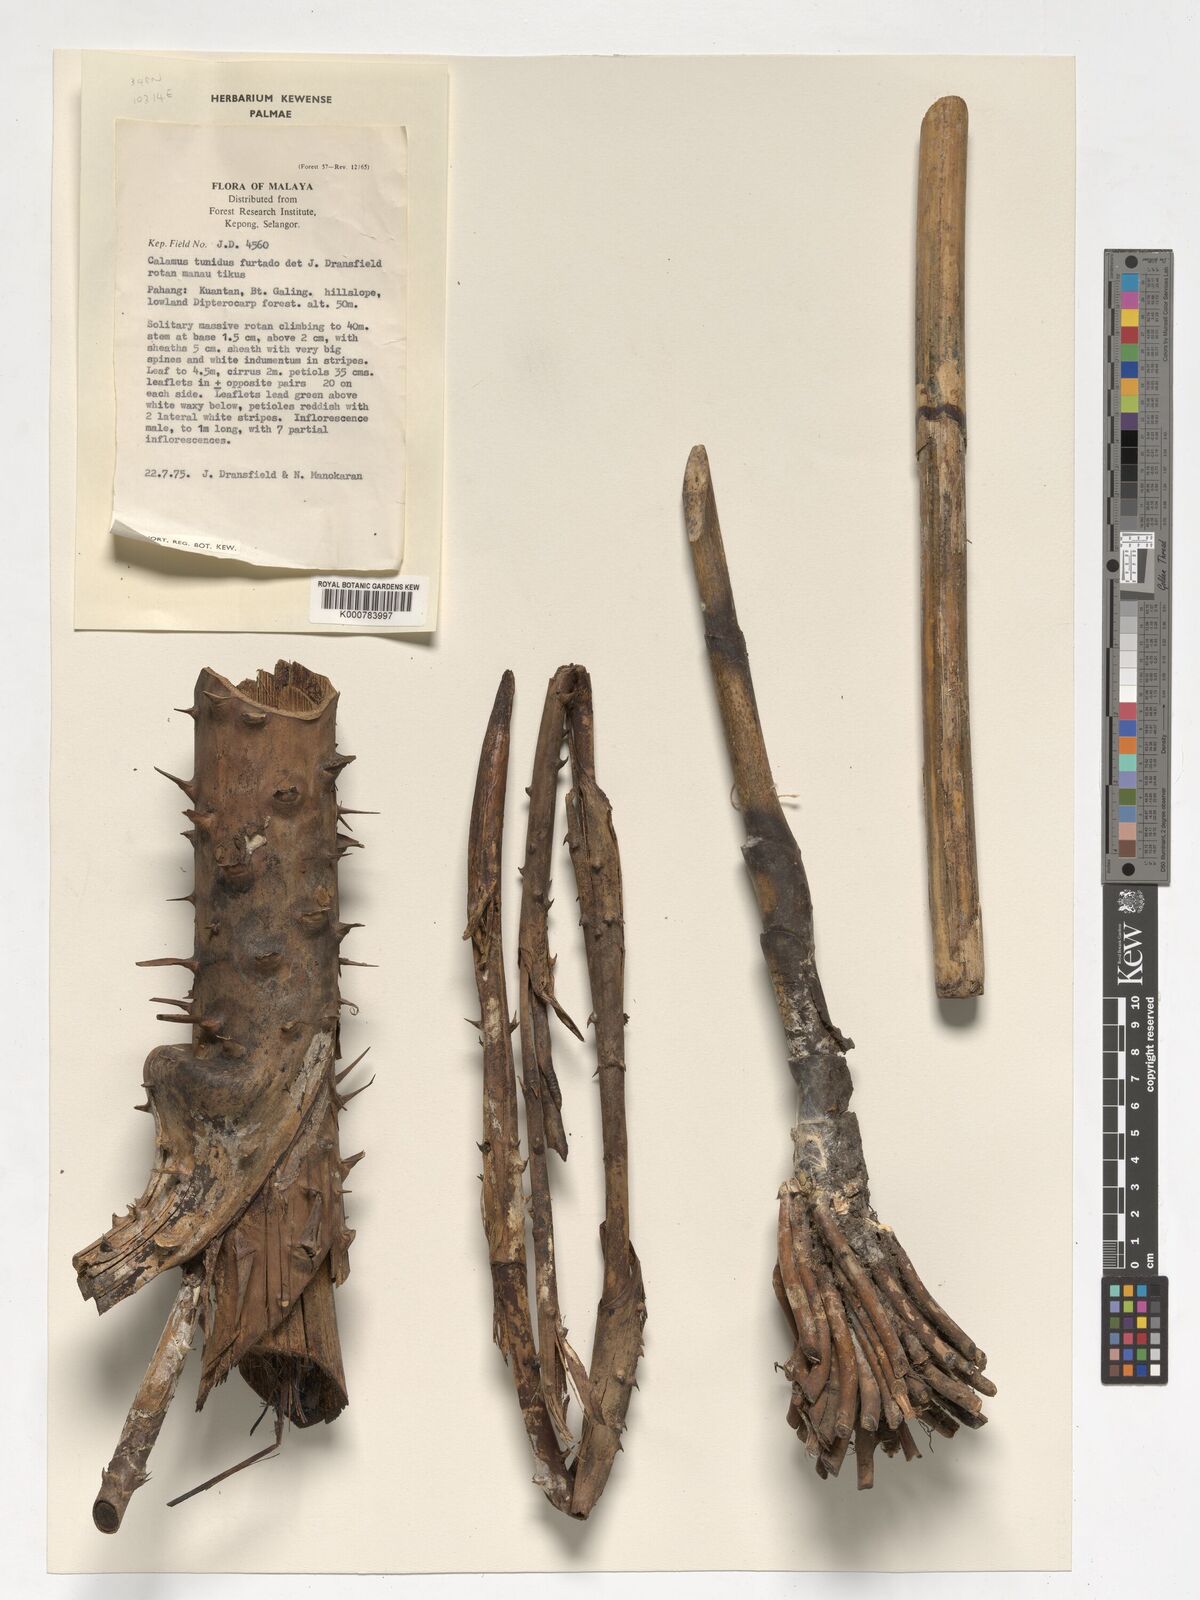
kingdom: Plantae
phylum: Tracheophyta
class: Liliopsida
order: Arecales
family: Arecaceae
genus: Calamus
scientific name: Calamus tumidus
